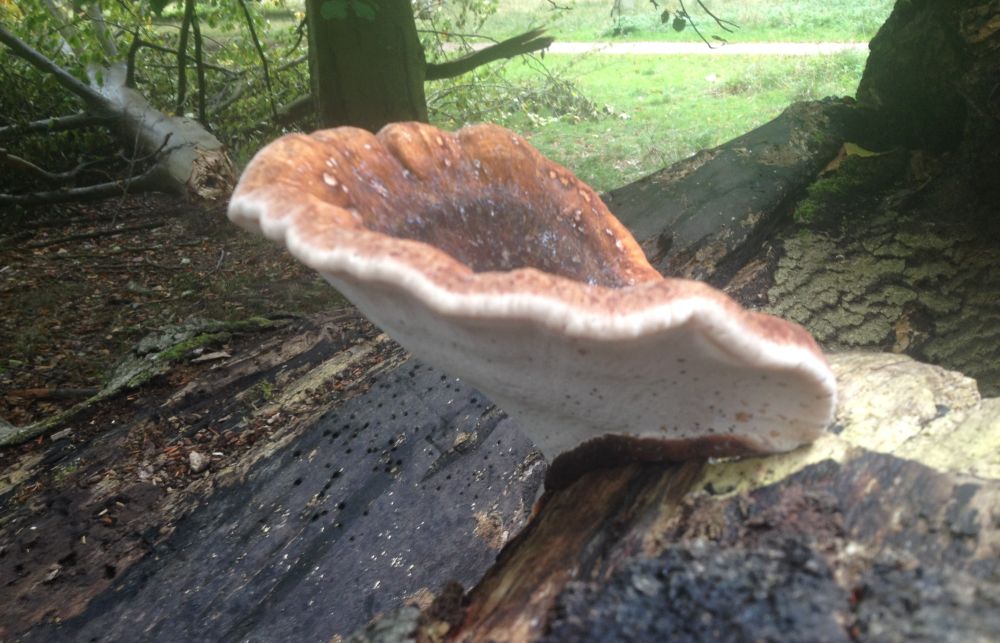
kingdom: Fungi
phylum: Basidiomycota
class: Agaricomycetes
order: Polyporales
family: Ischnodermataceae
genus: Ischnoderma
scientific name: Ischnoderma resinosum
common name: løv-tjæreporesvamp
